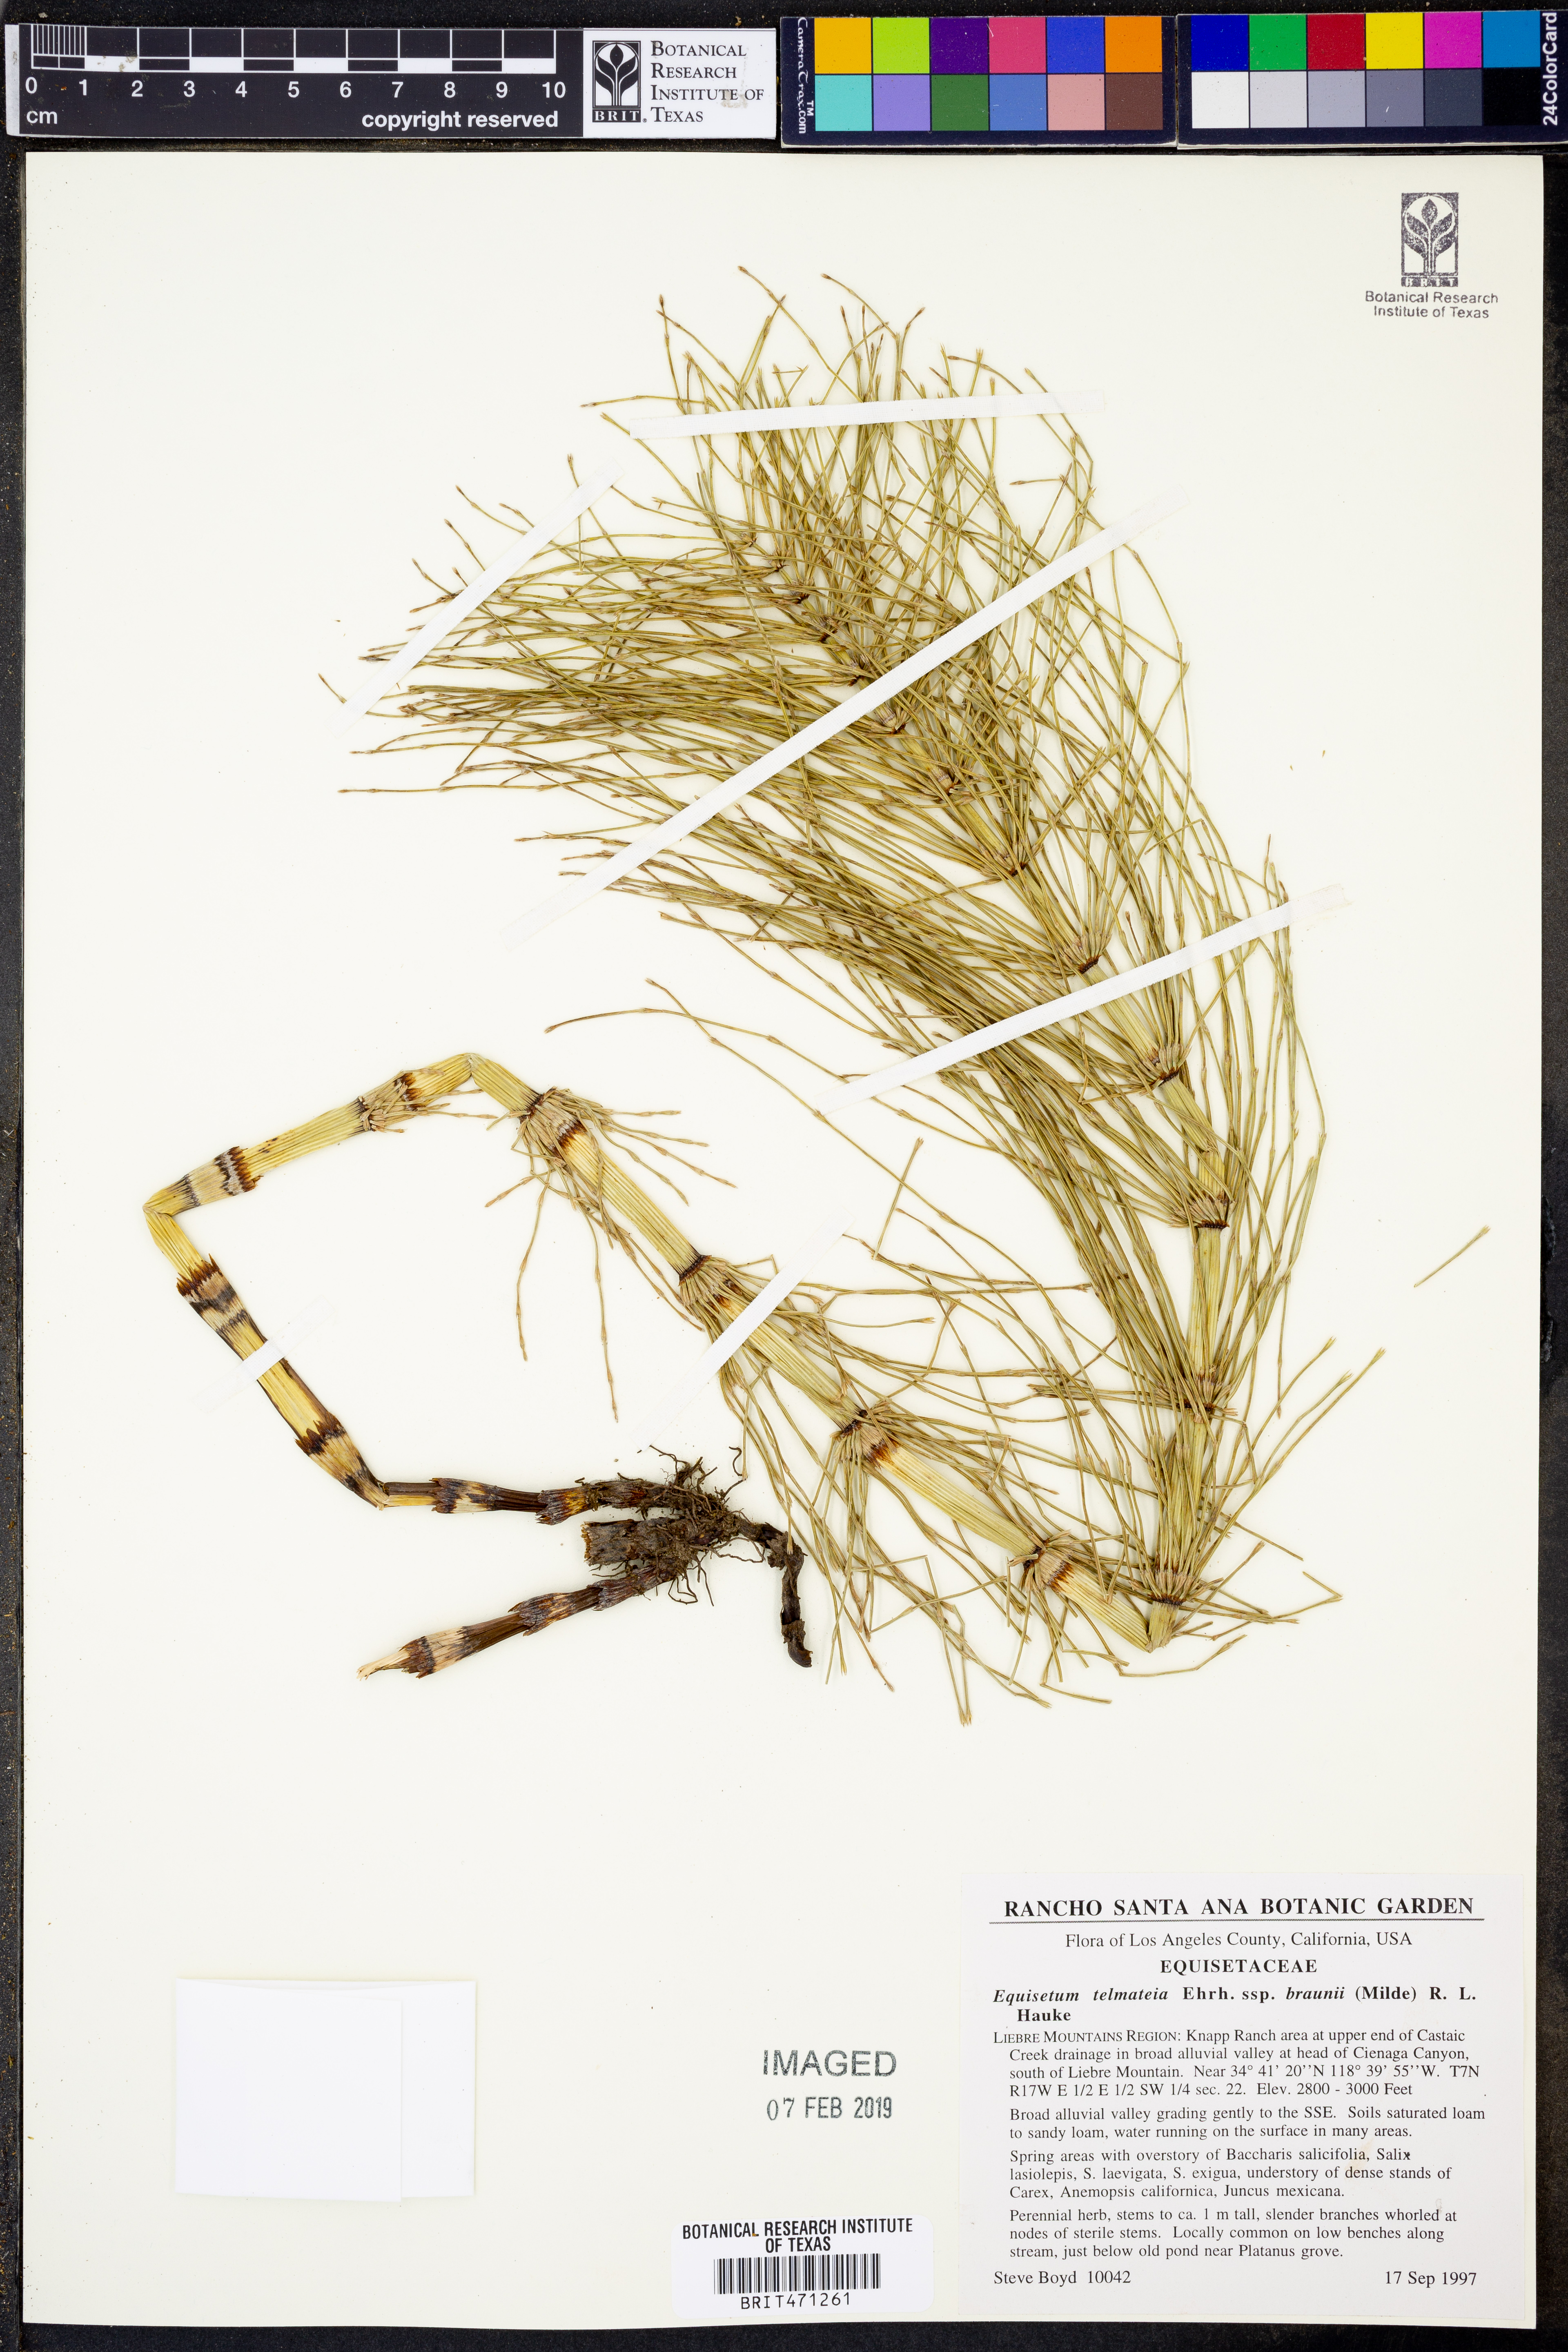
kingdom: Plantae
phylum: Tracheophyta
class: Polypodiopsida
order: Equisetales
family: Equisetaceae
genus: Equisetum
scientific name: Equisetum braunii
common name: Braun's horsetail
